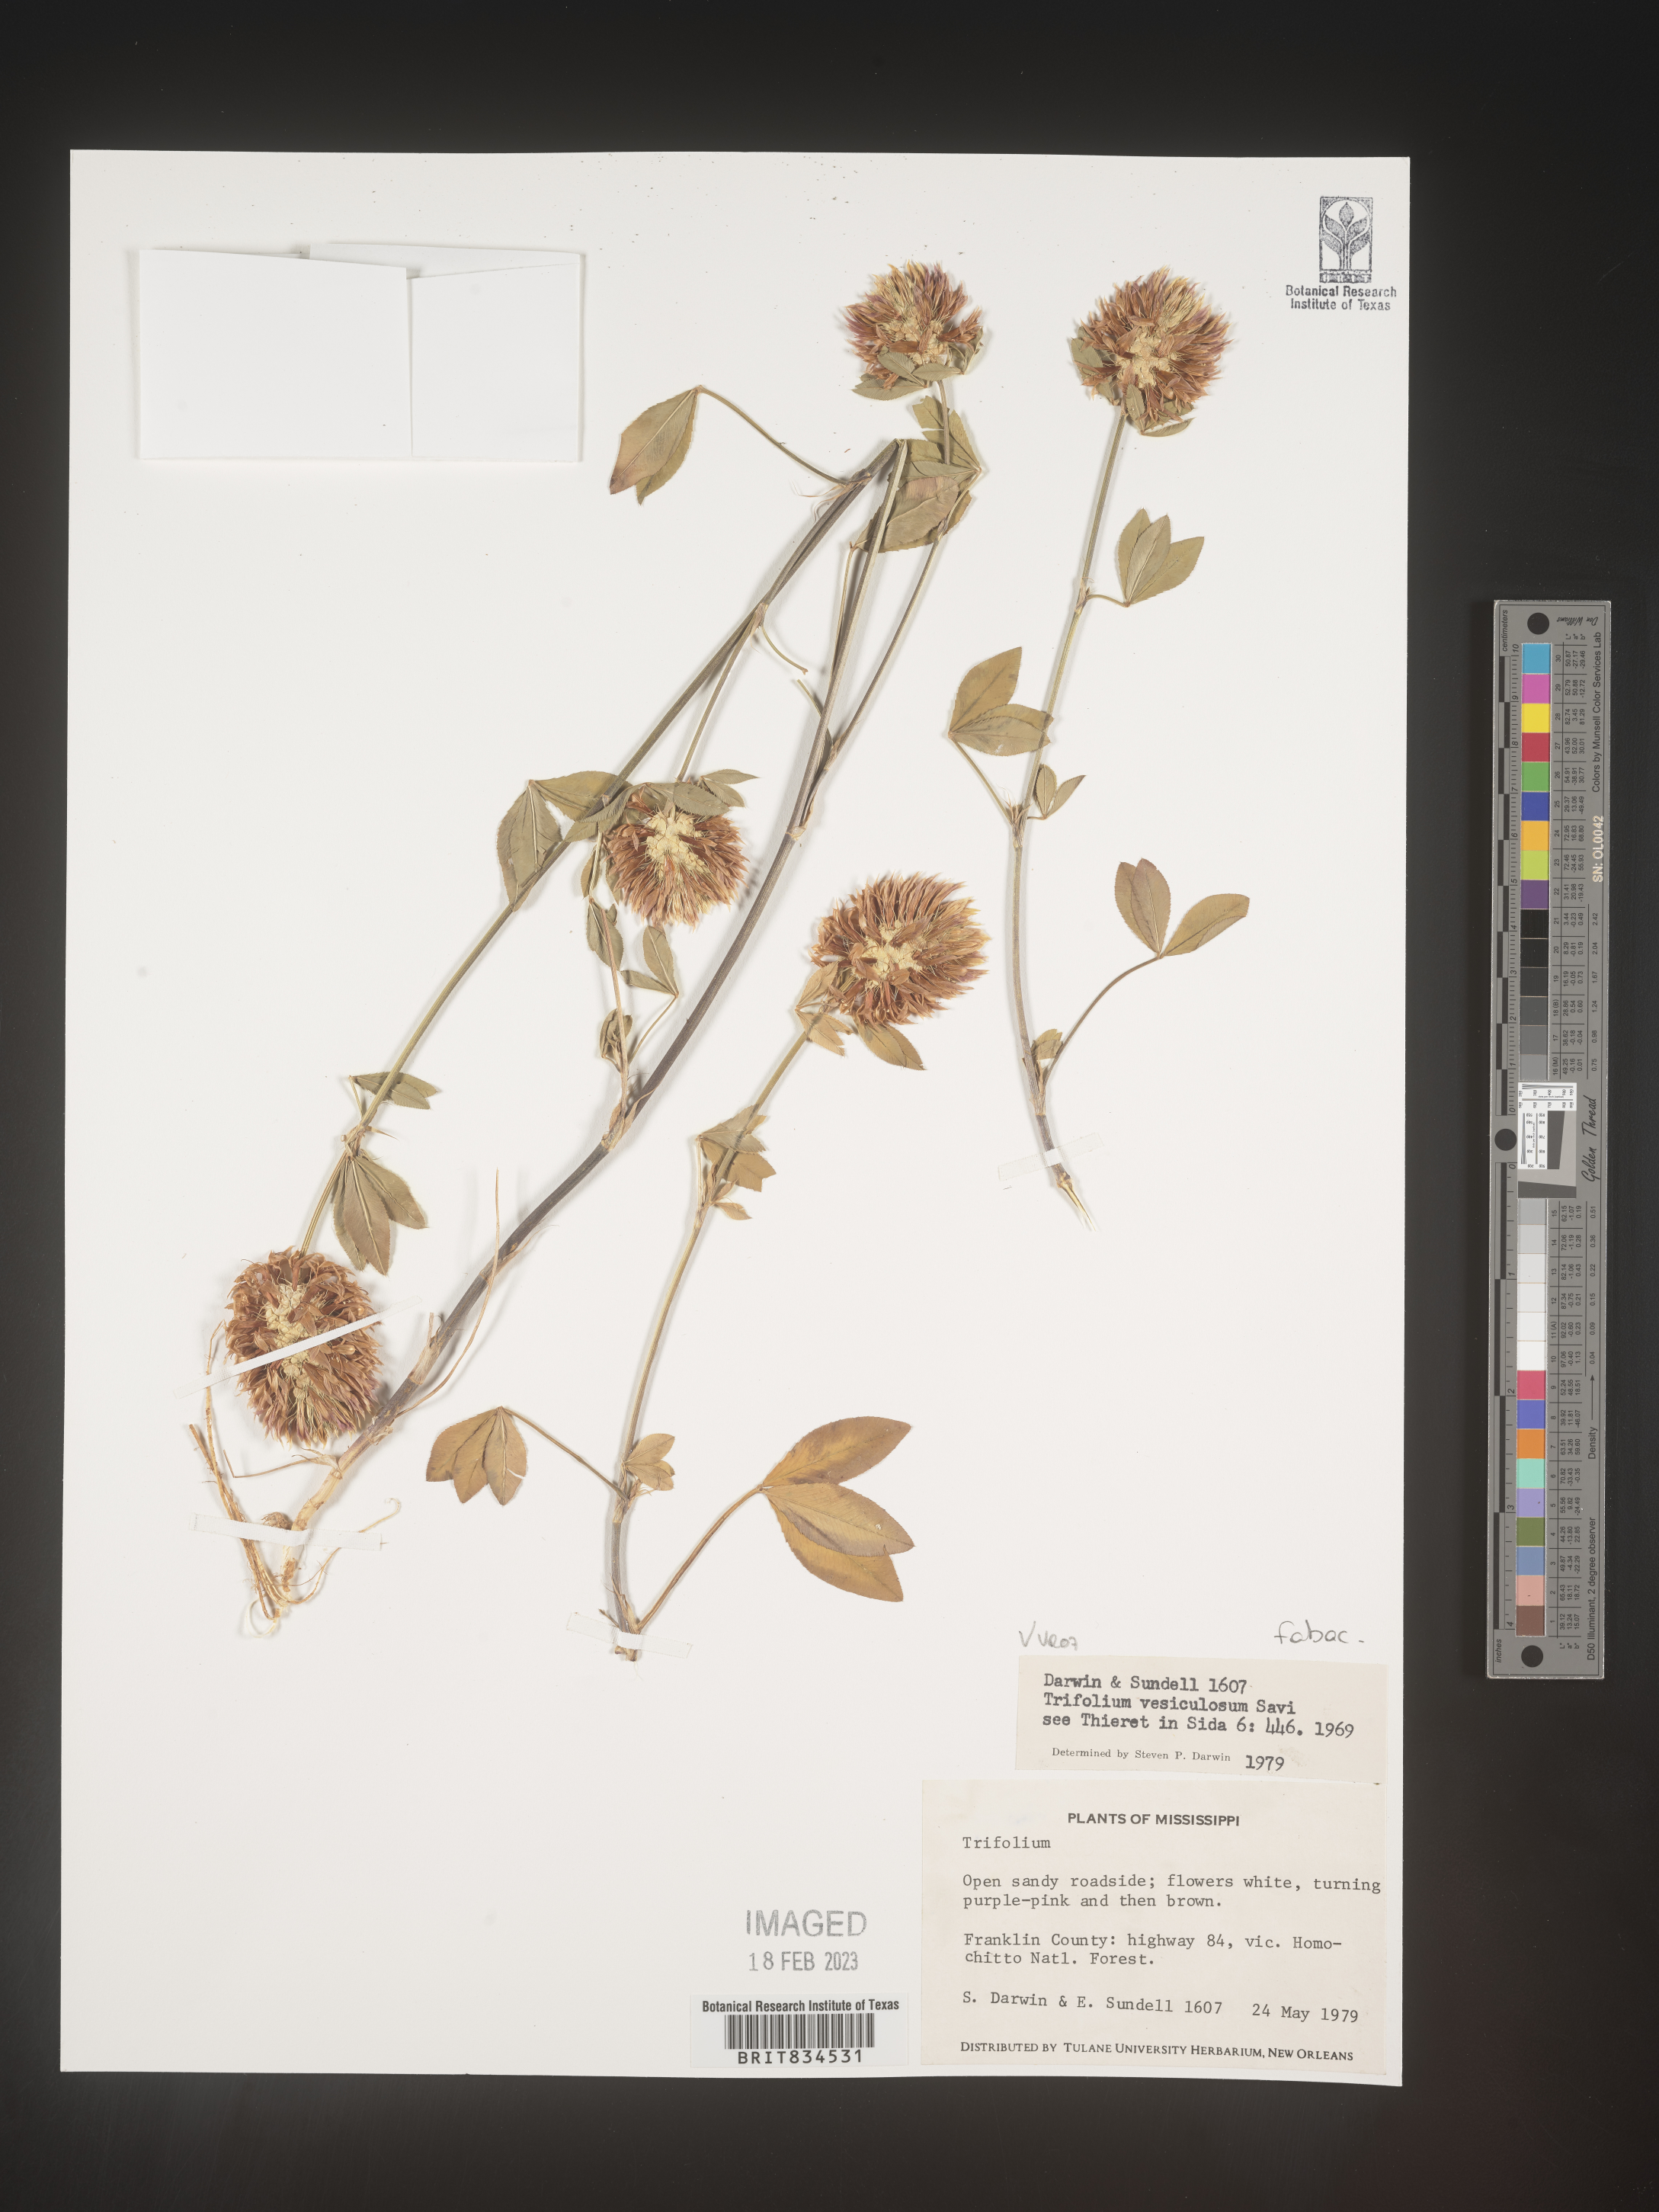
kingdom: Plantae
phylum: Tracheophyta
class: Magnoliopsida
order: Fabales
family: Fabaceae
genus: Trifolium
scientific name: Trifolium
